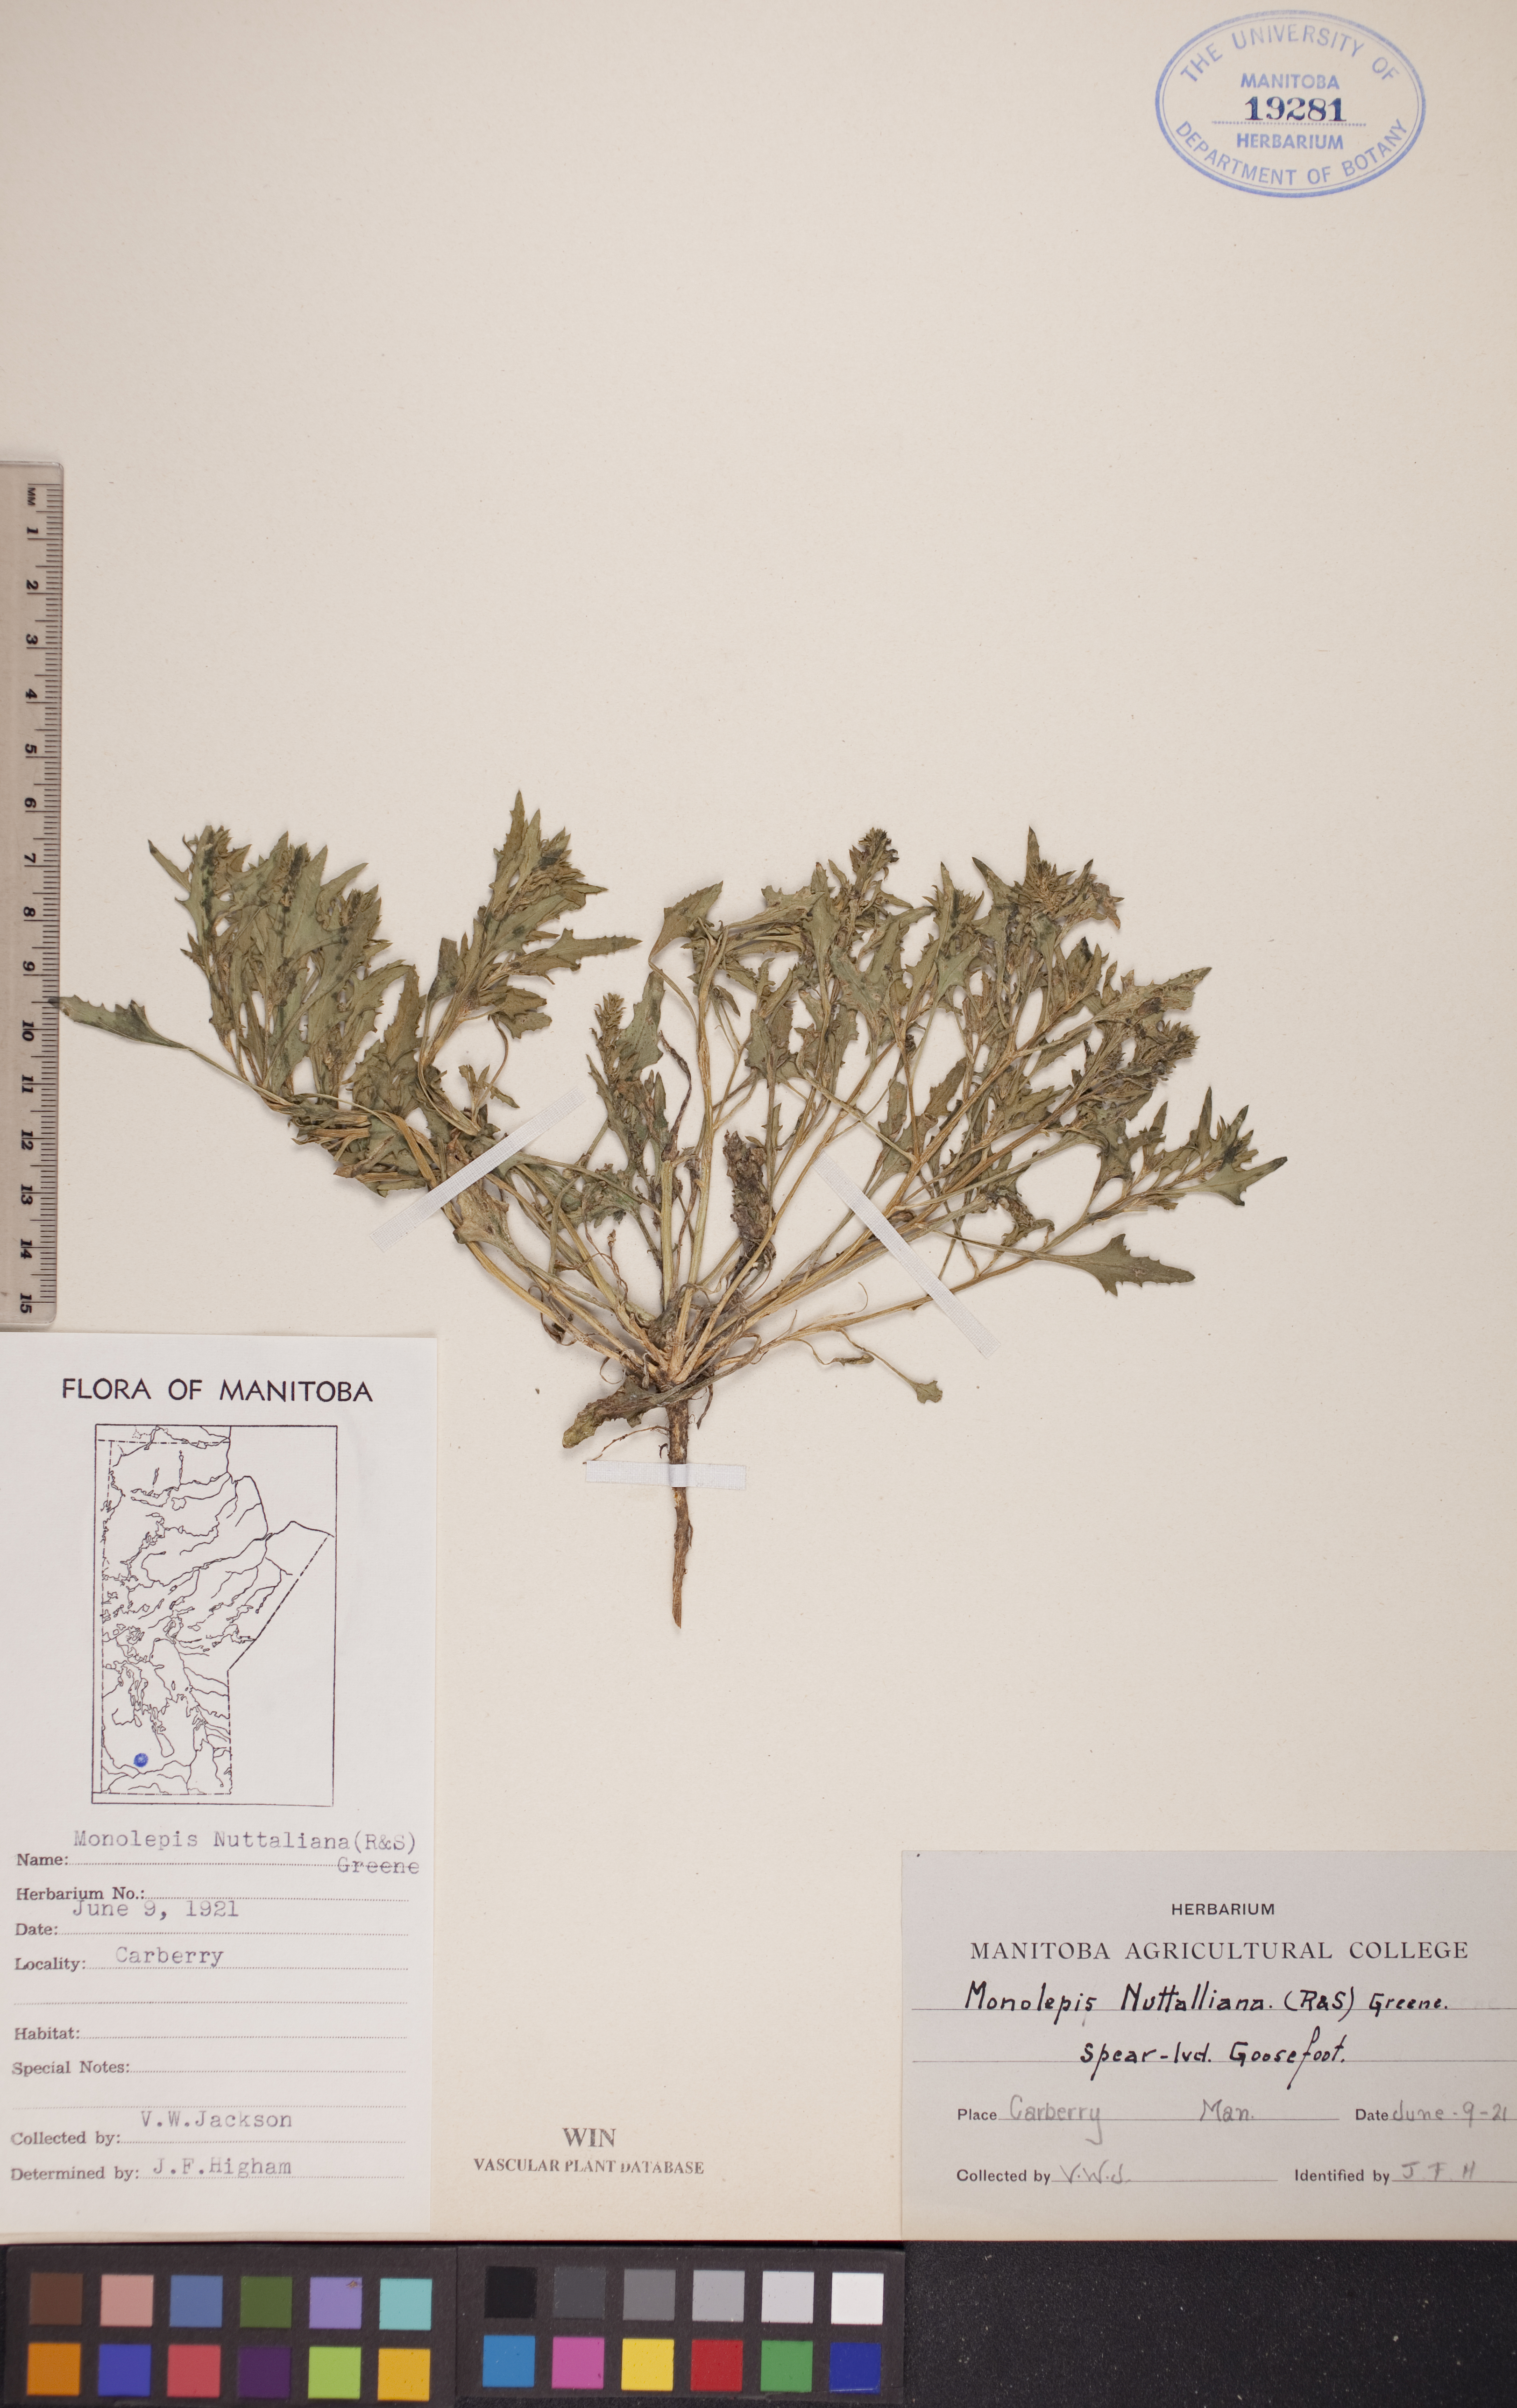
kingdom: Plantae
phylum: Tracheophyta
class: Magnoliopsida
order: Caryophyllales
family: Amaranthaceae
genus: Blitum
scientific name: Blitum nuttallianum
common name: Poverty-weed
